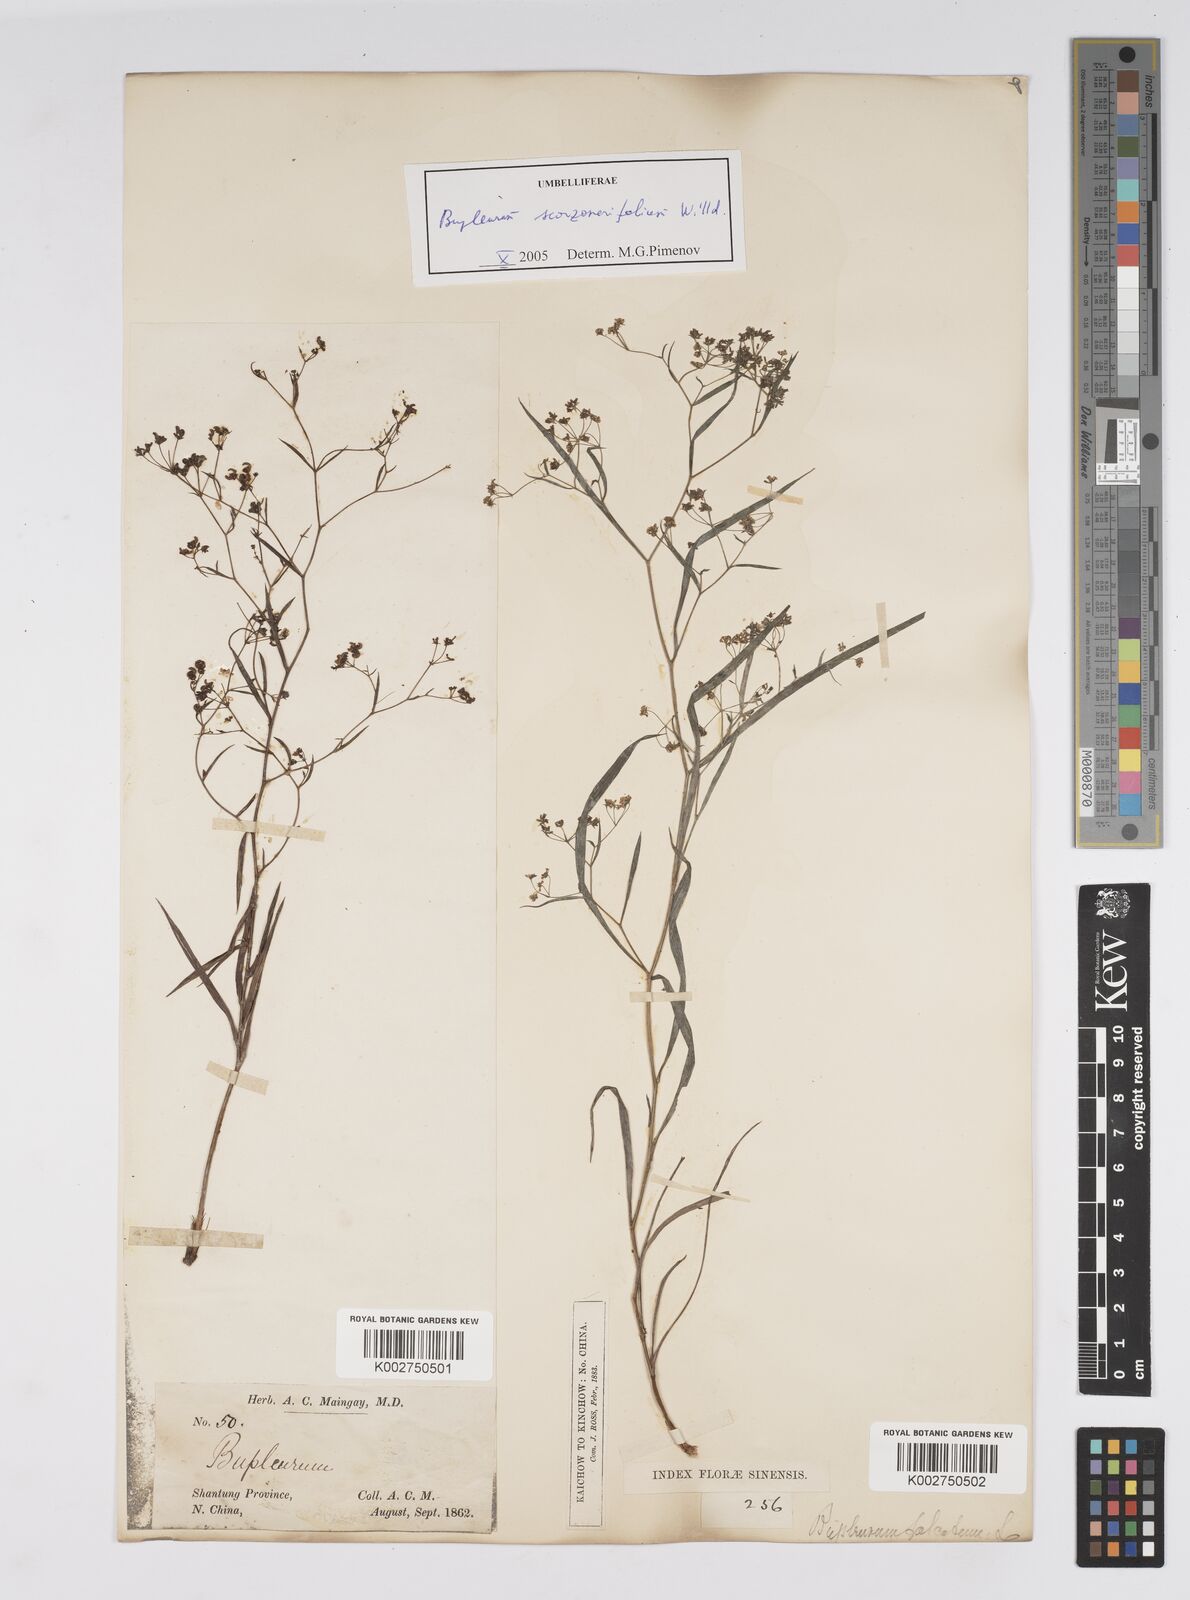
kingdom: Plantae
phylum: Tracheophyta
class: Magnoliopsida
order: Apiales
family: Apiaceae
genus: Bupleurum
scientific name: Bupleurum krylovianum
